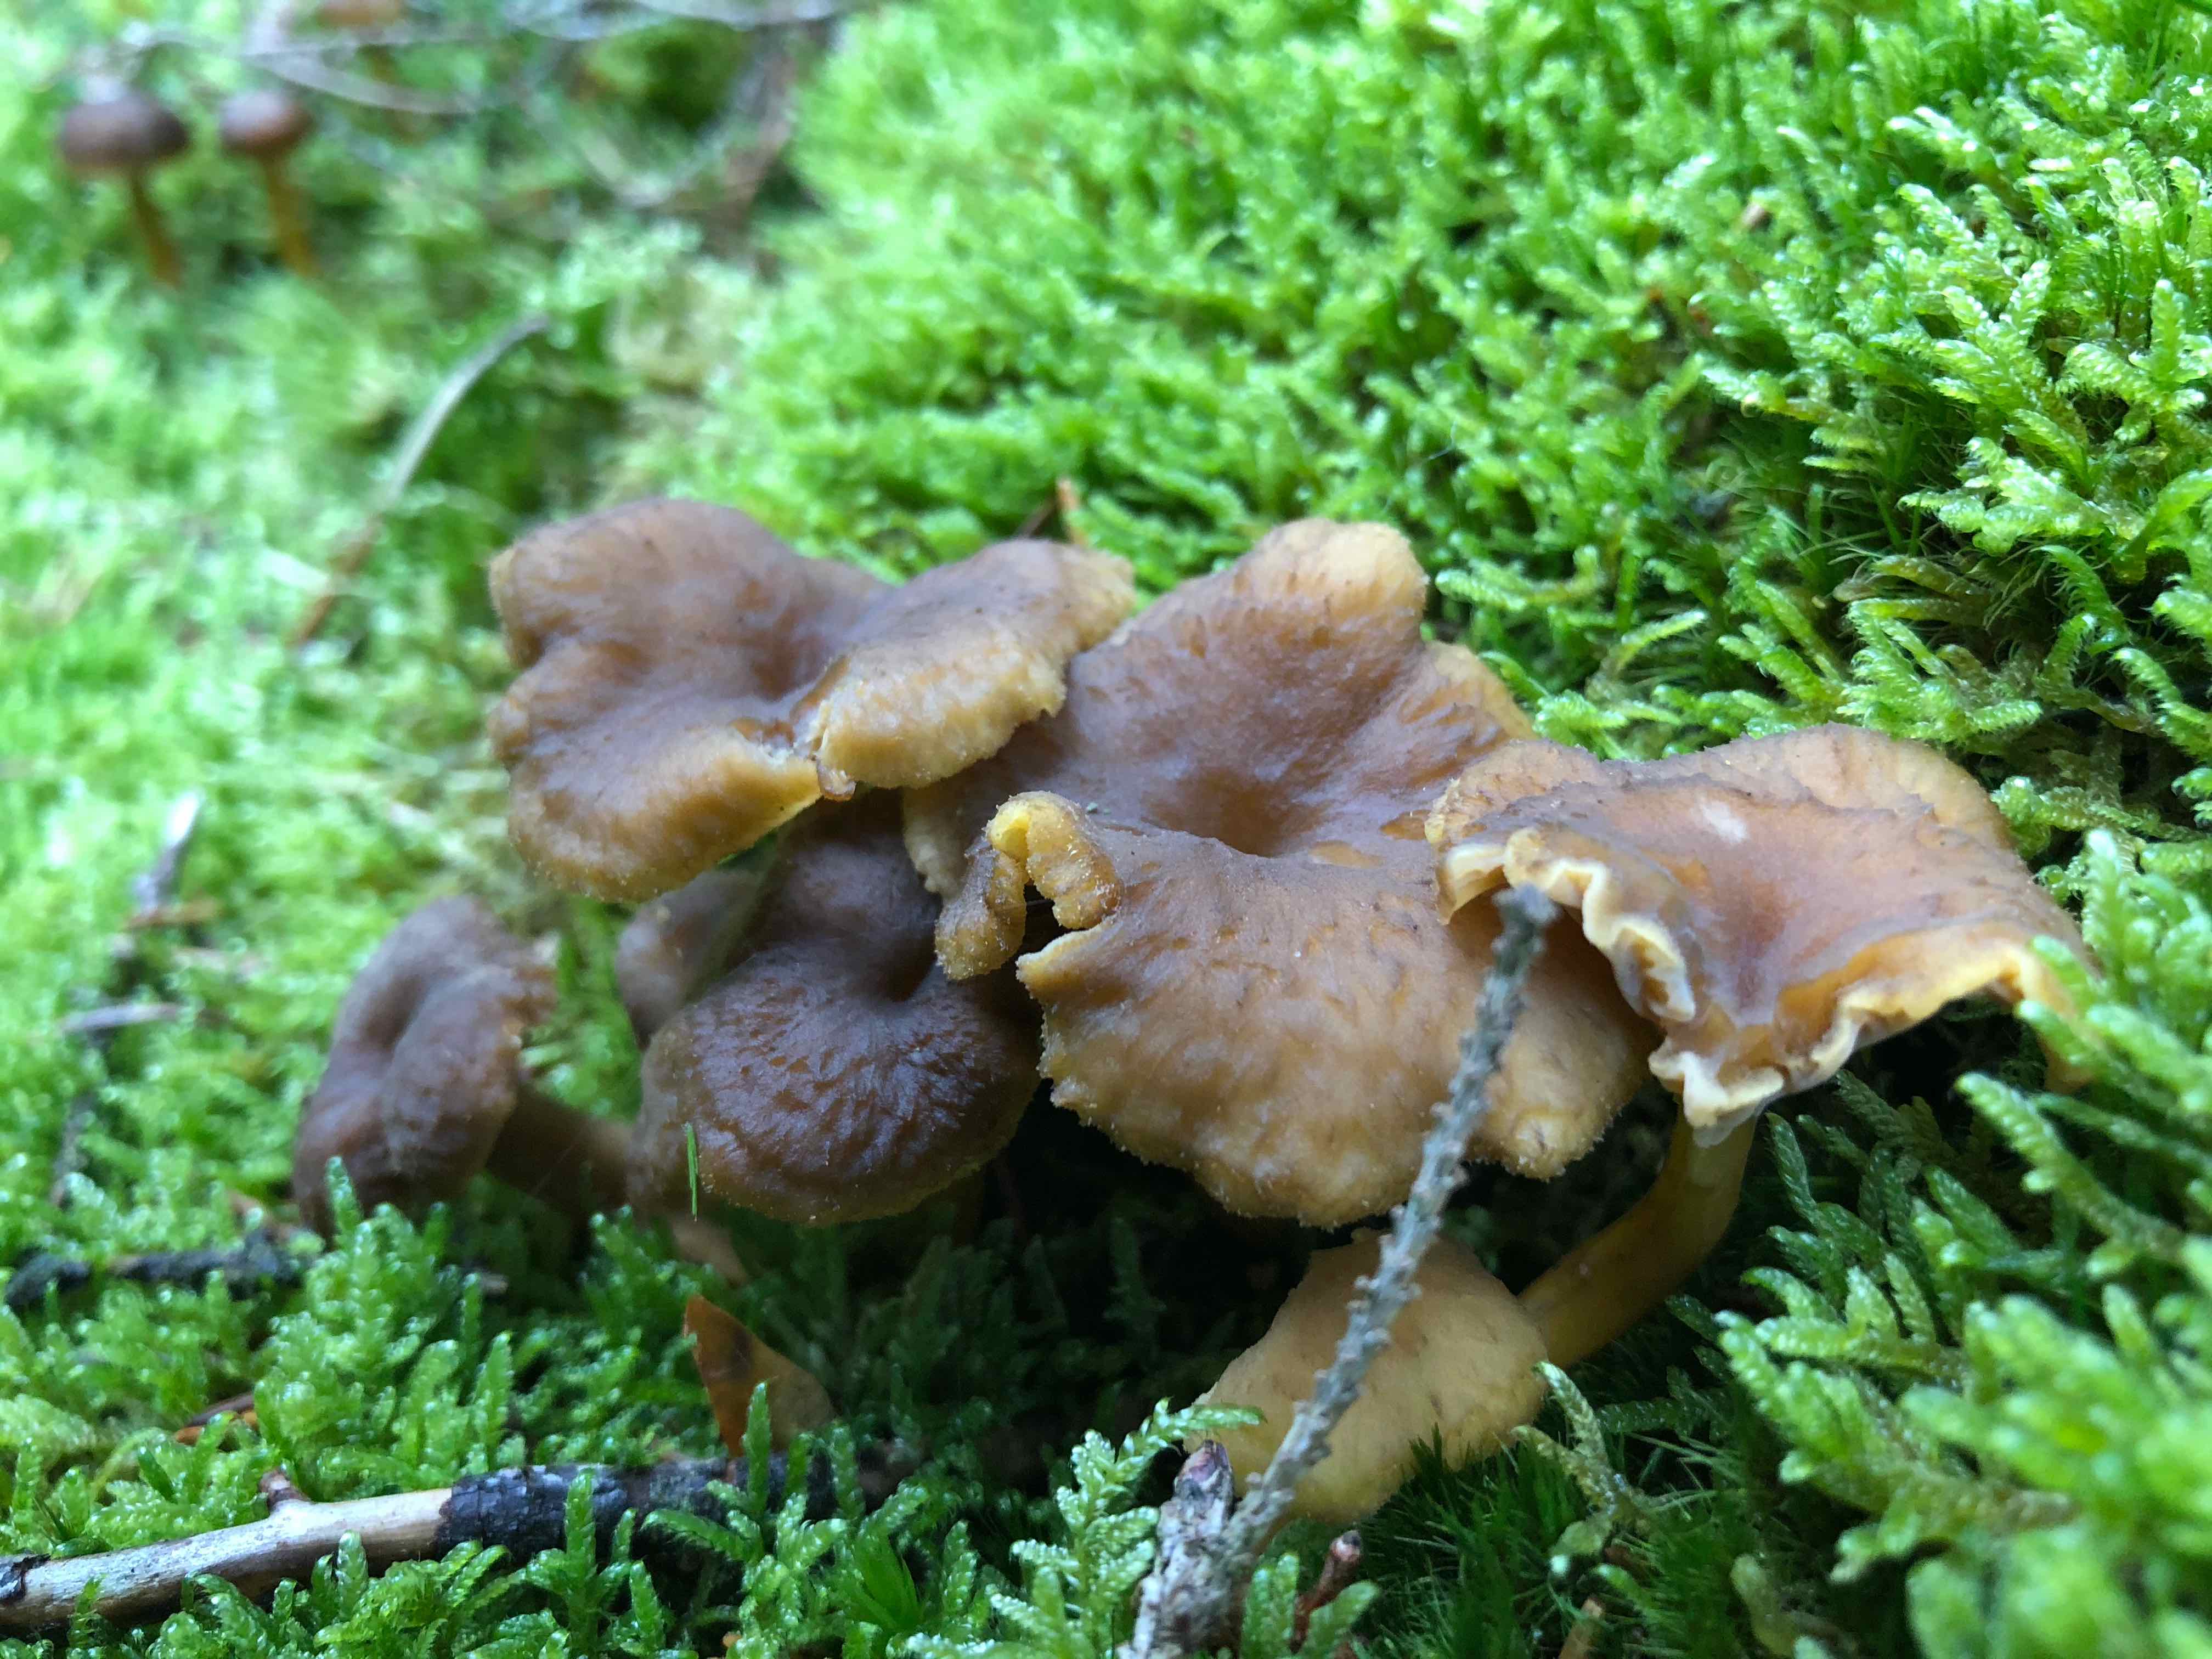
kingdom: Fungi
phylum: Basidiomycota
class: Agaricomycetes
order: Cantharellales
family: Hydnaceae
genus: Craterellus
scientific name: Craterellus tubaeformis
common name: tragt-kantarel
